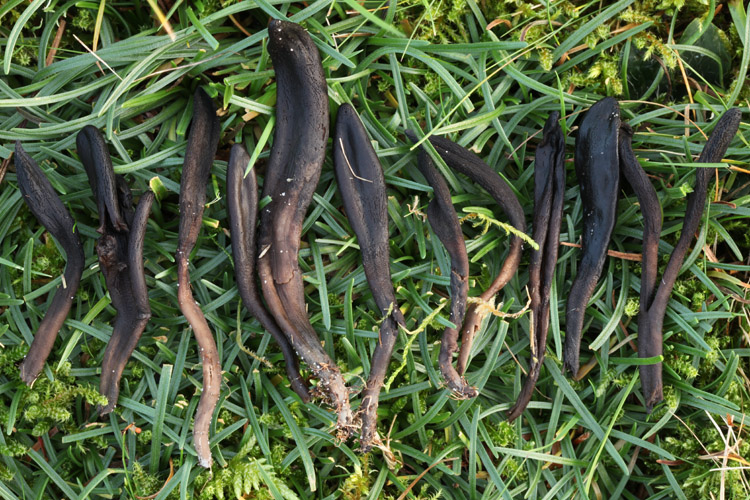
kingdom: Fungi
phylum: Ascomycota
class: Geoglossomycetes
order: Geoglossales
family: Geoglossaceae
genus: Hemileucoglossum
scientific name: Hemileucoglossum elongatum
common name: småsporet jordtunge
